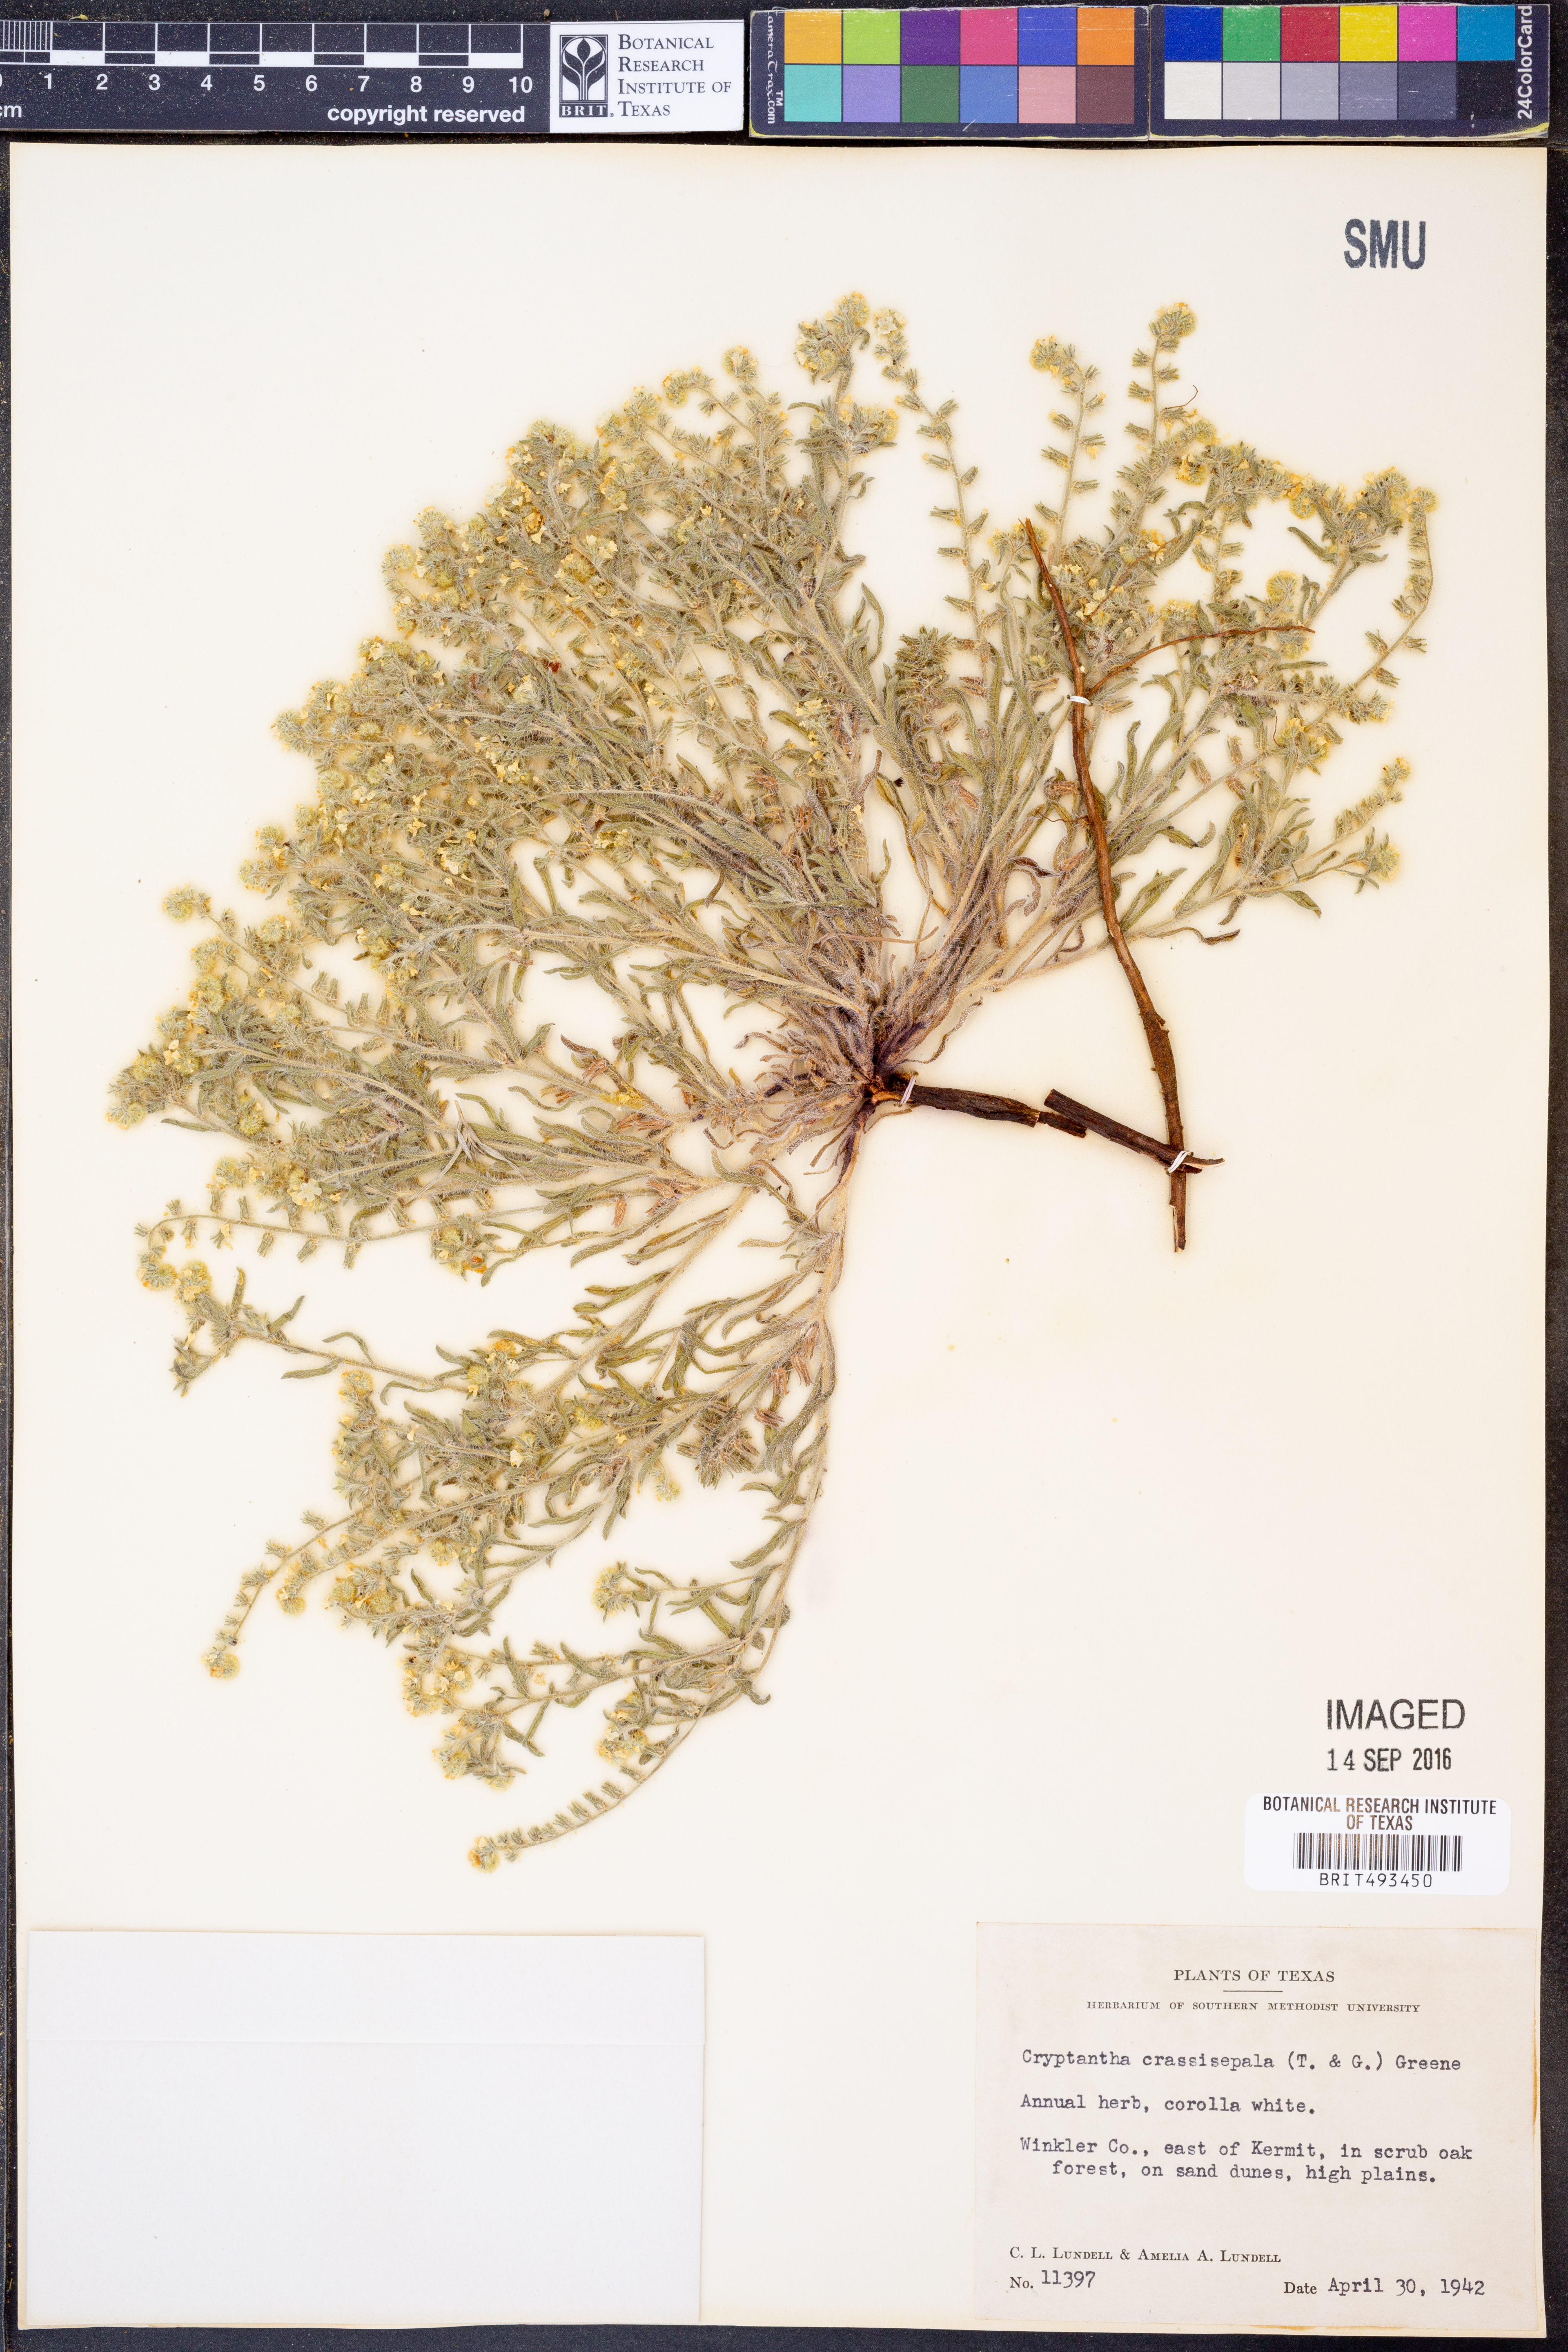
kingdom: Plantae
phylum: Tracheophyta
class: Magnoliopsida
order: Boraginales
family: Boraginaceae
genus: Cryptantha
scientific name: Cryptantha crassisepala
